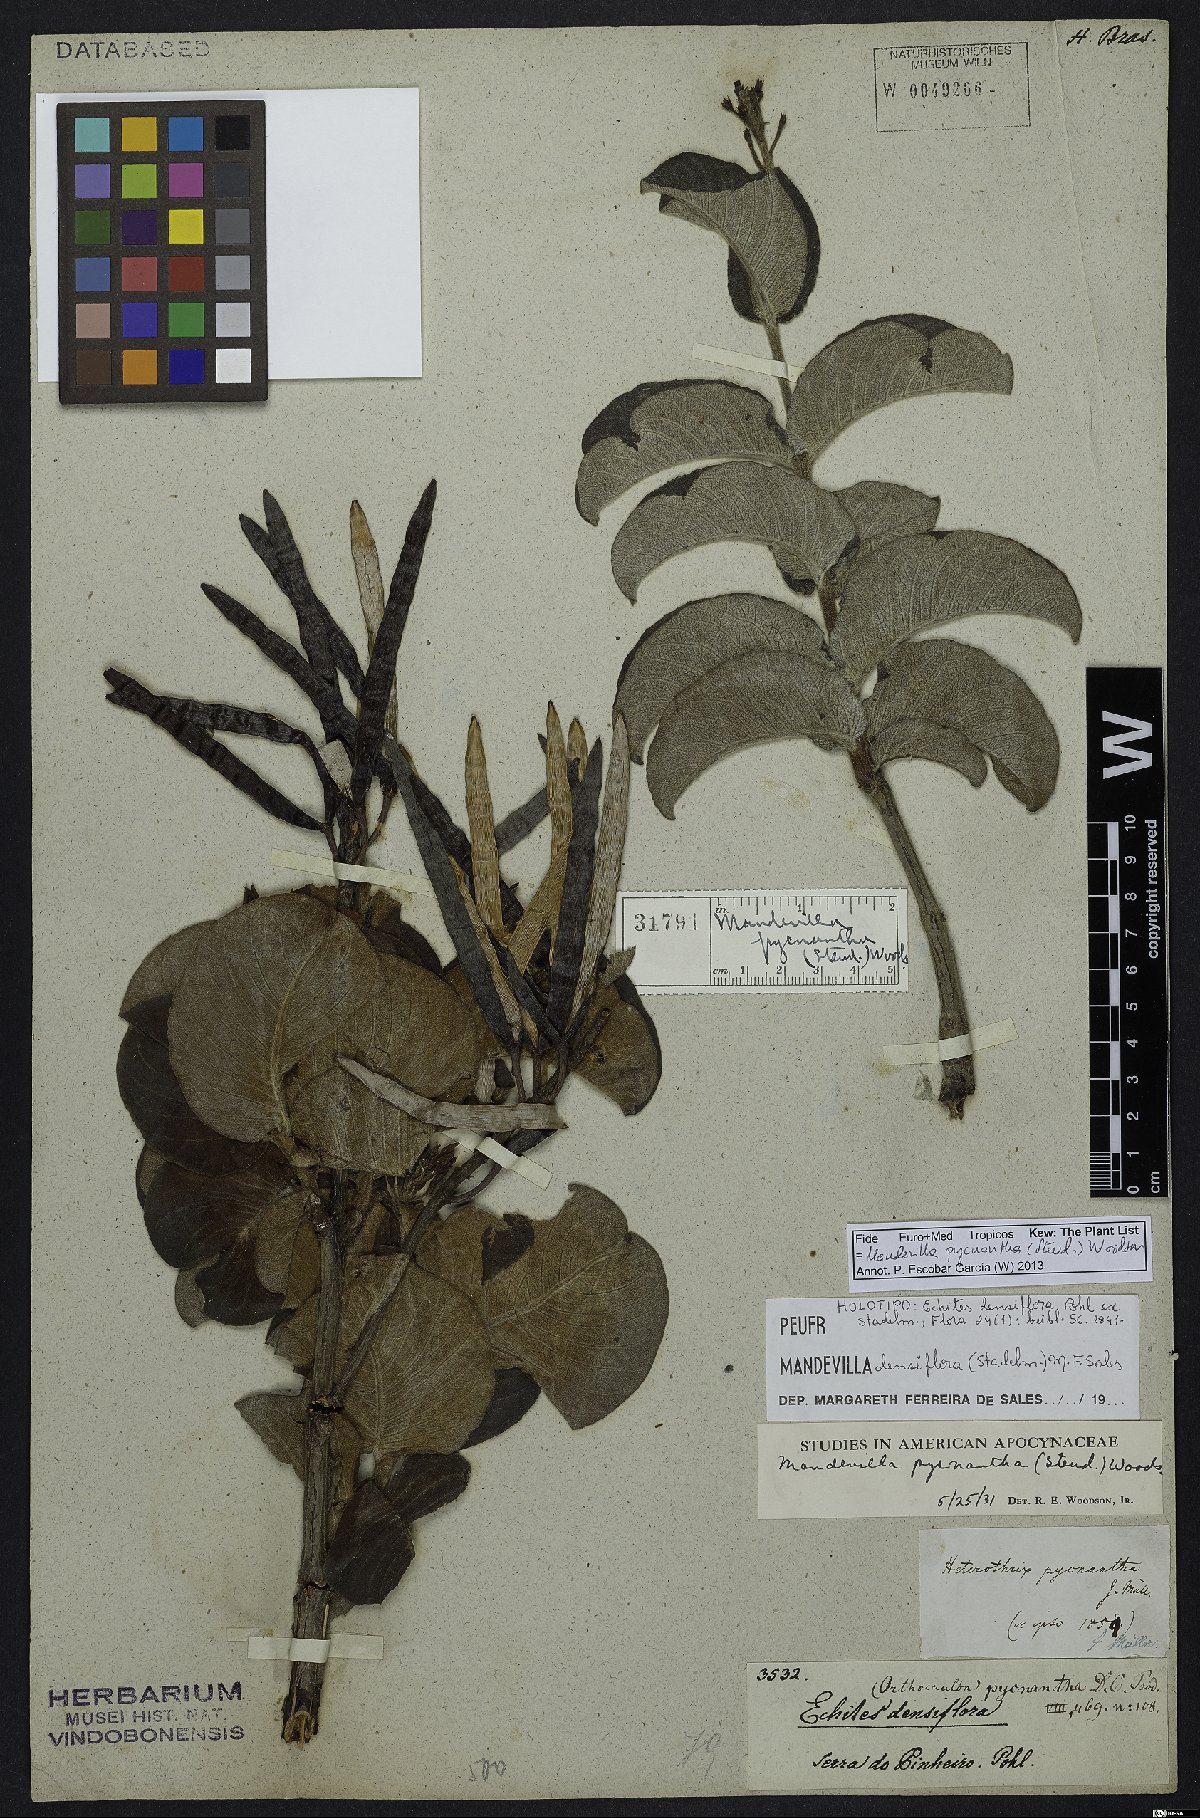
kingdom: Plantae
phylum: Tracheophyta
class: Magnoliopsida
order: Gentianales
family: Apocynaceae
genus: Mandevilla
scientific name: Mandevilla pycnantha
